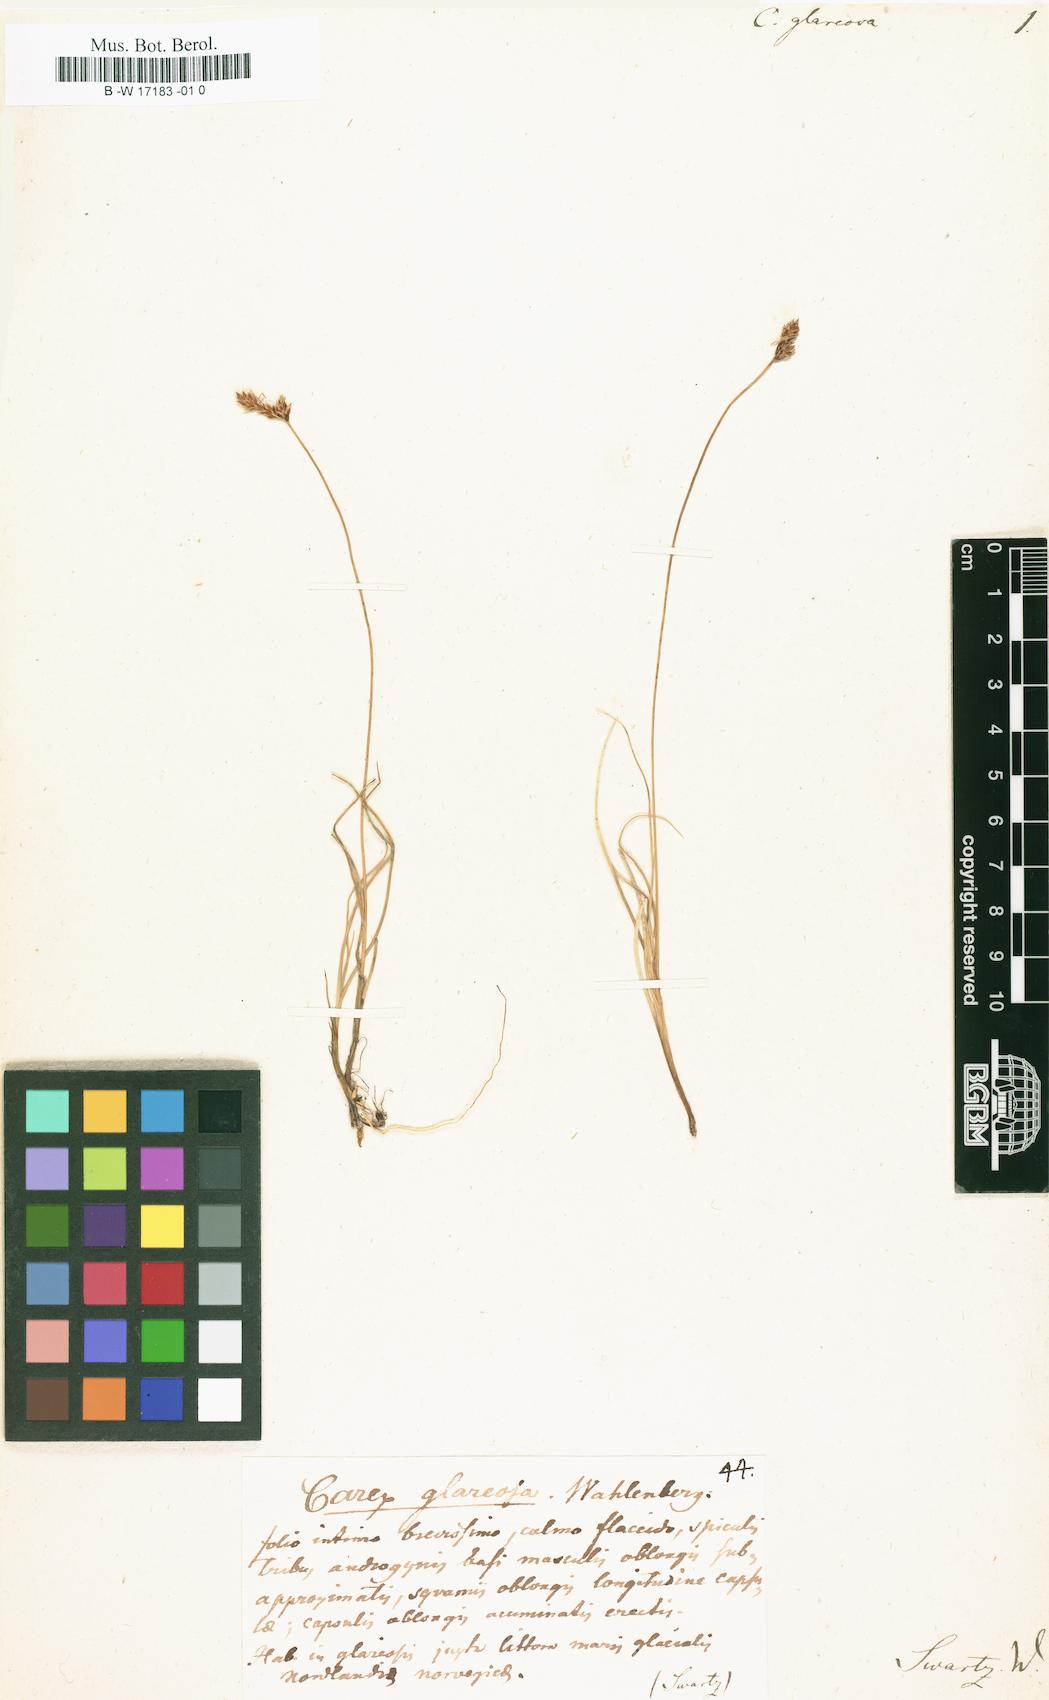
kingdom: Plantae
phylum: Tracheophyta
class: Liliopsida
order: Poales
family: Cyperaceae
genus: Carex
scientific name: Carex glareosa
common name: Clustered sedge
